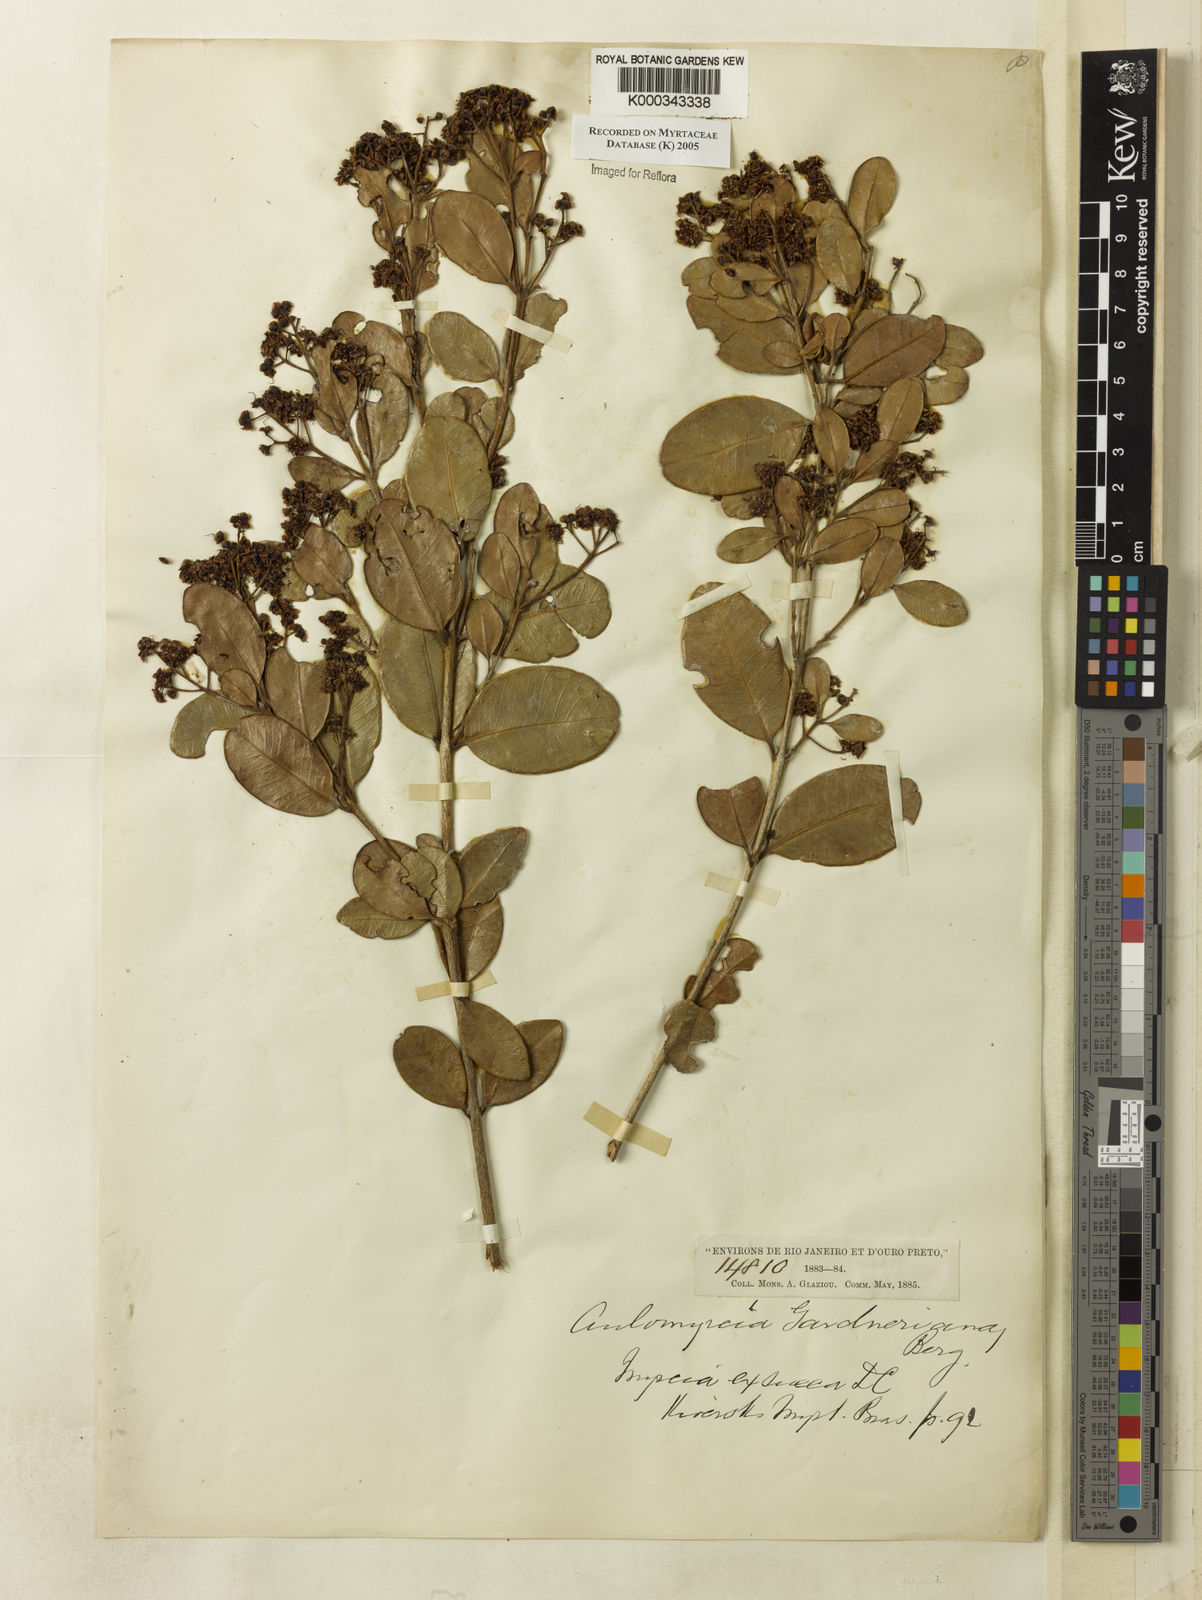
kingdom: Plantae
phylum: Tracheophyta
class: Magnoliopsida
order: Myrtales
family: Myrtaceae
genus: Myrcia
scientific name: Myrcia guianensis
